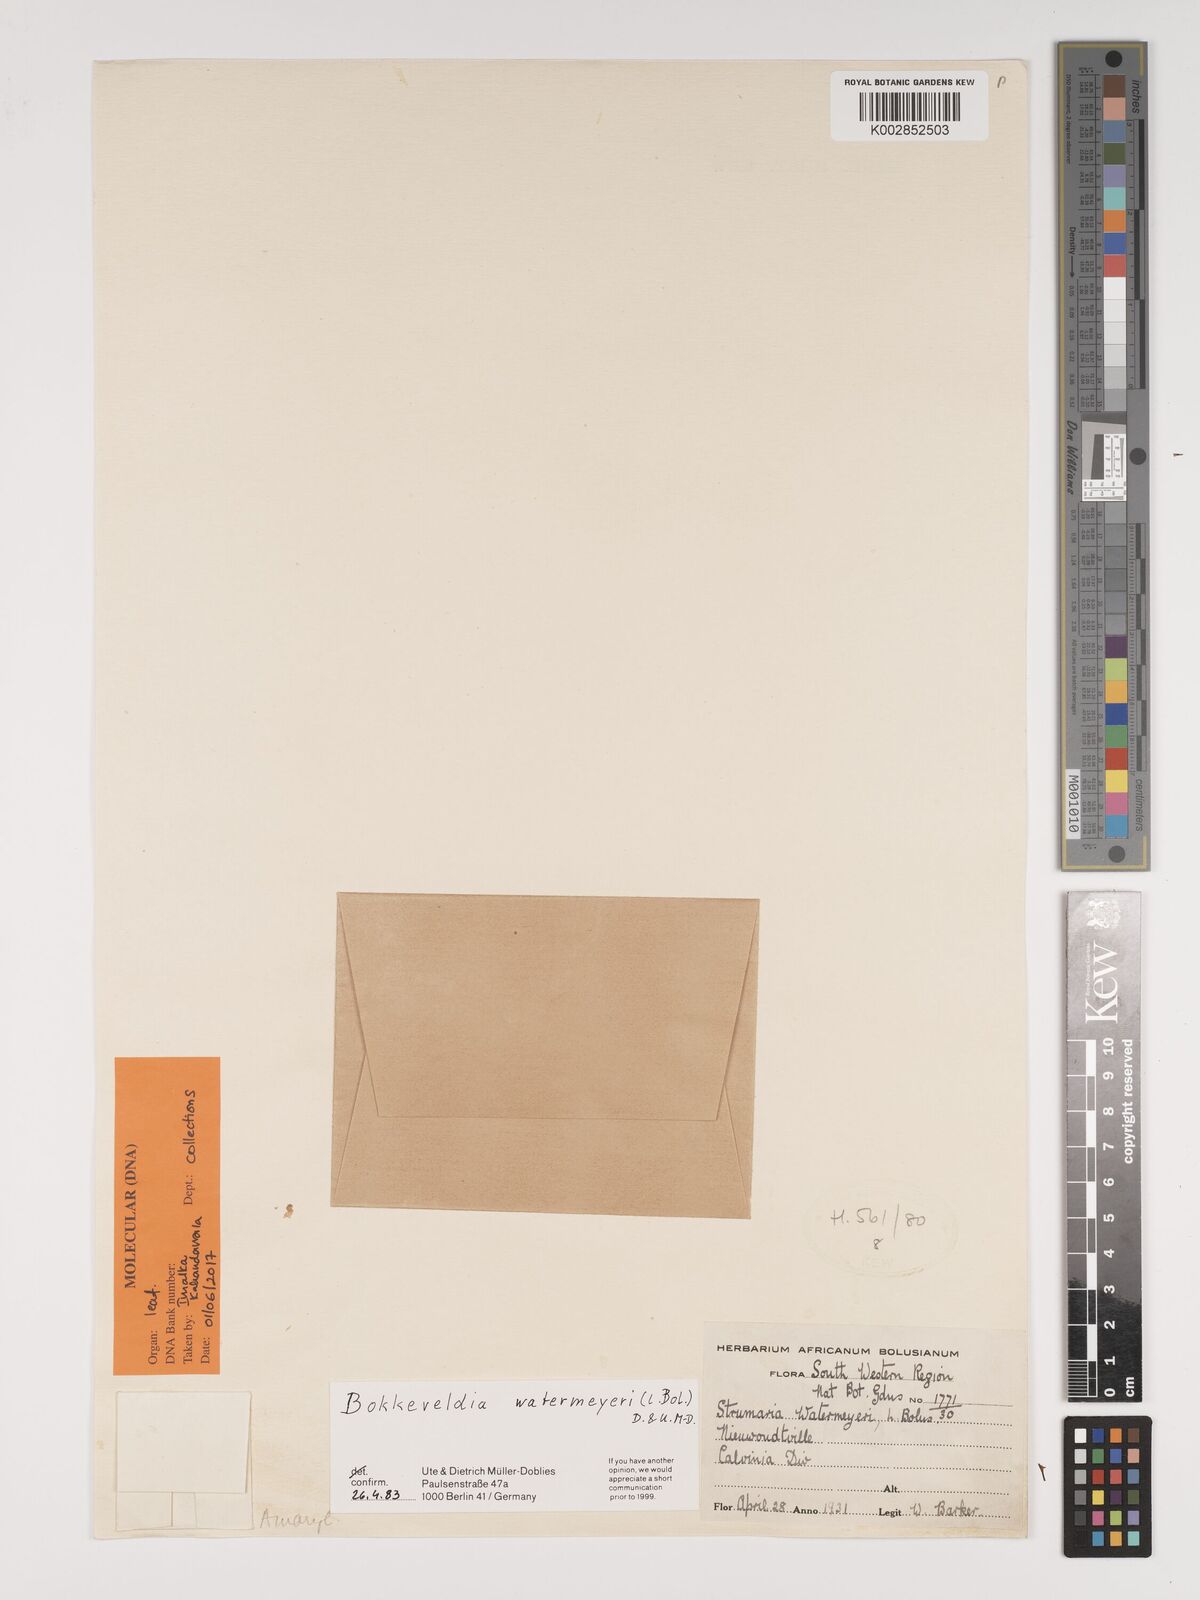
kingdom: Plantae
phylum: Tracheophyta
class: Liliopsida
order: Asparagales
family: Amaryllidaceae
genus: Strumaria
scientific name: Strumaria watermeyeri
